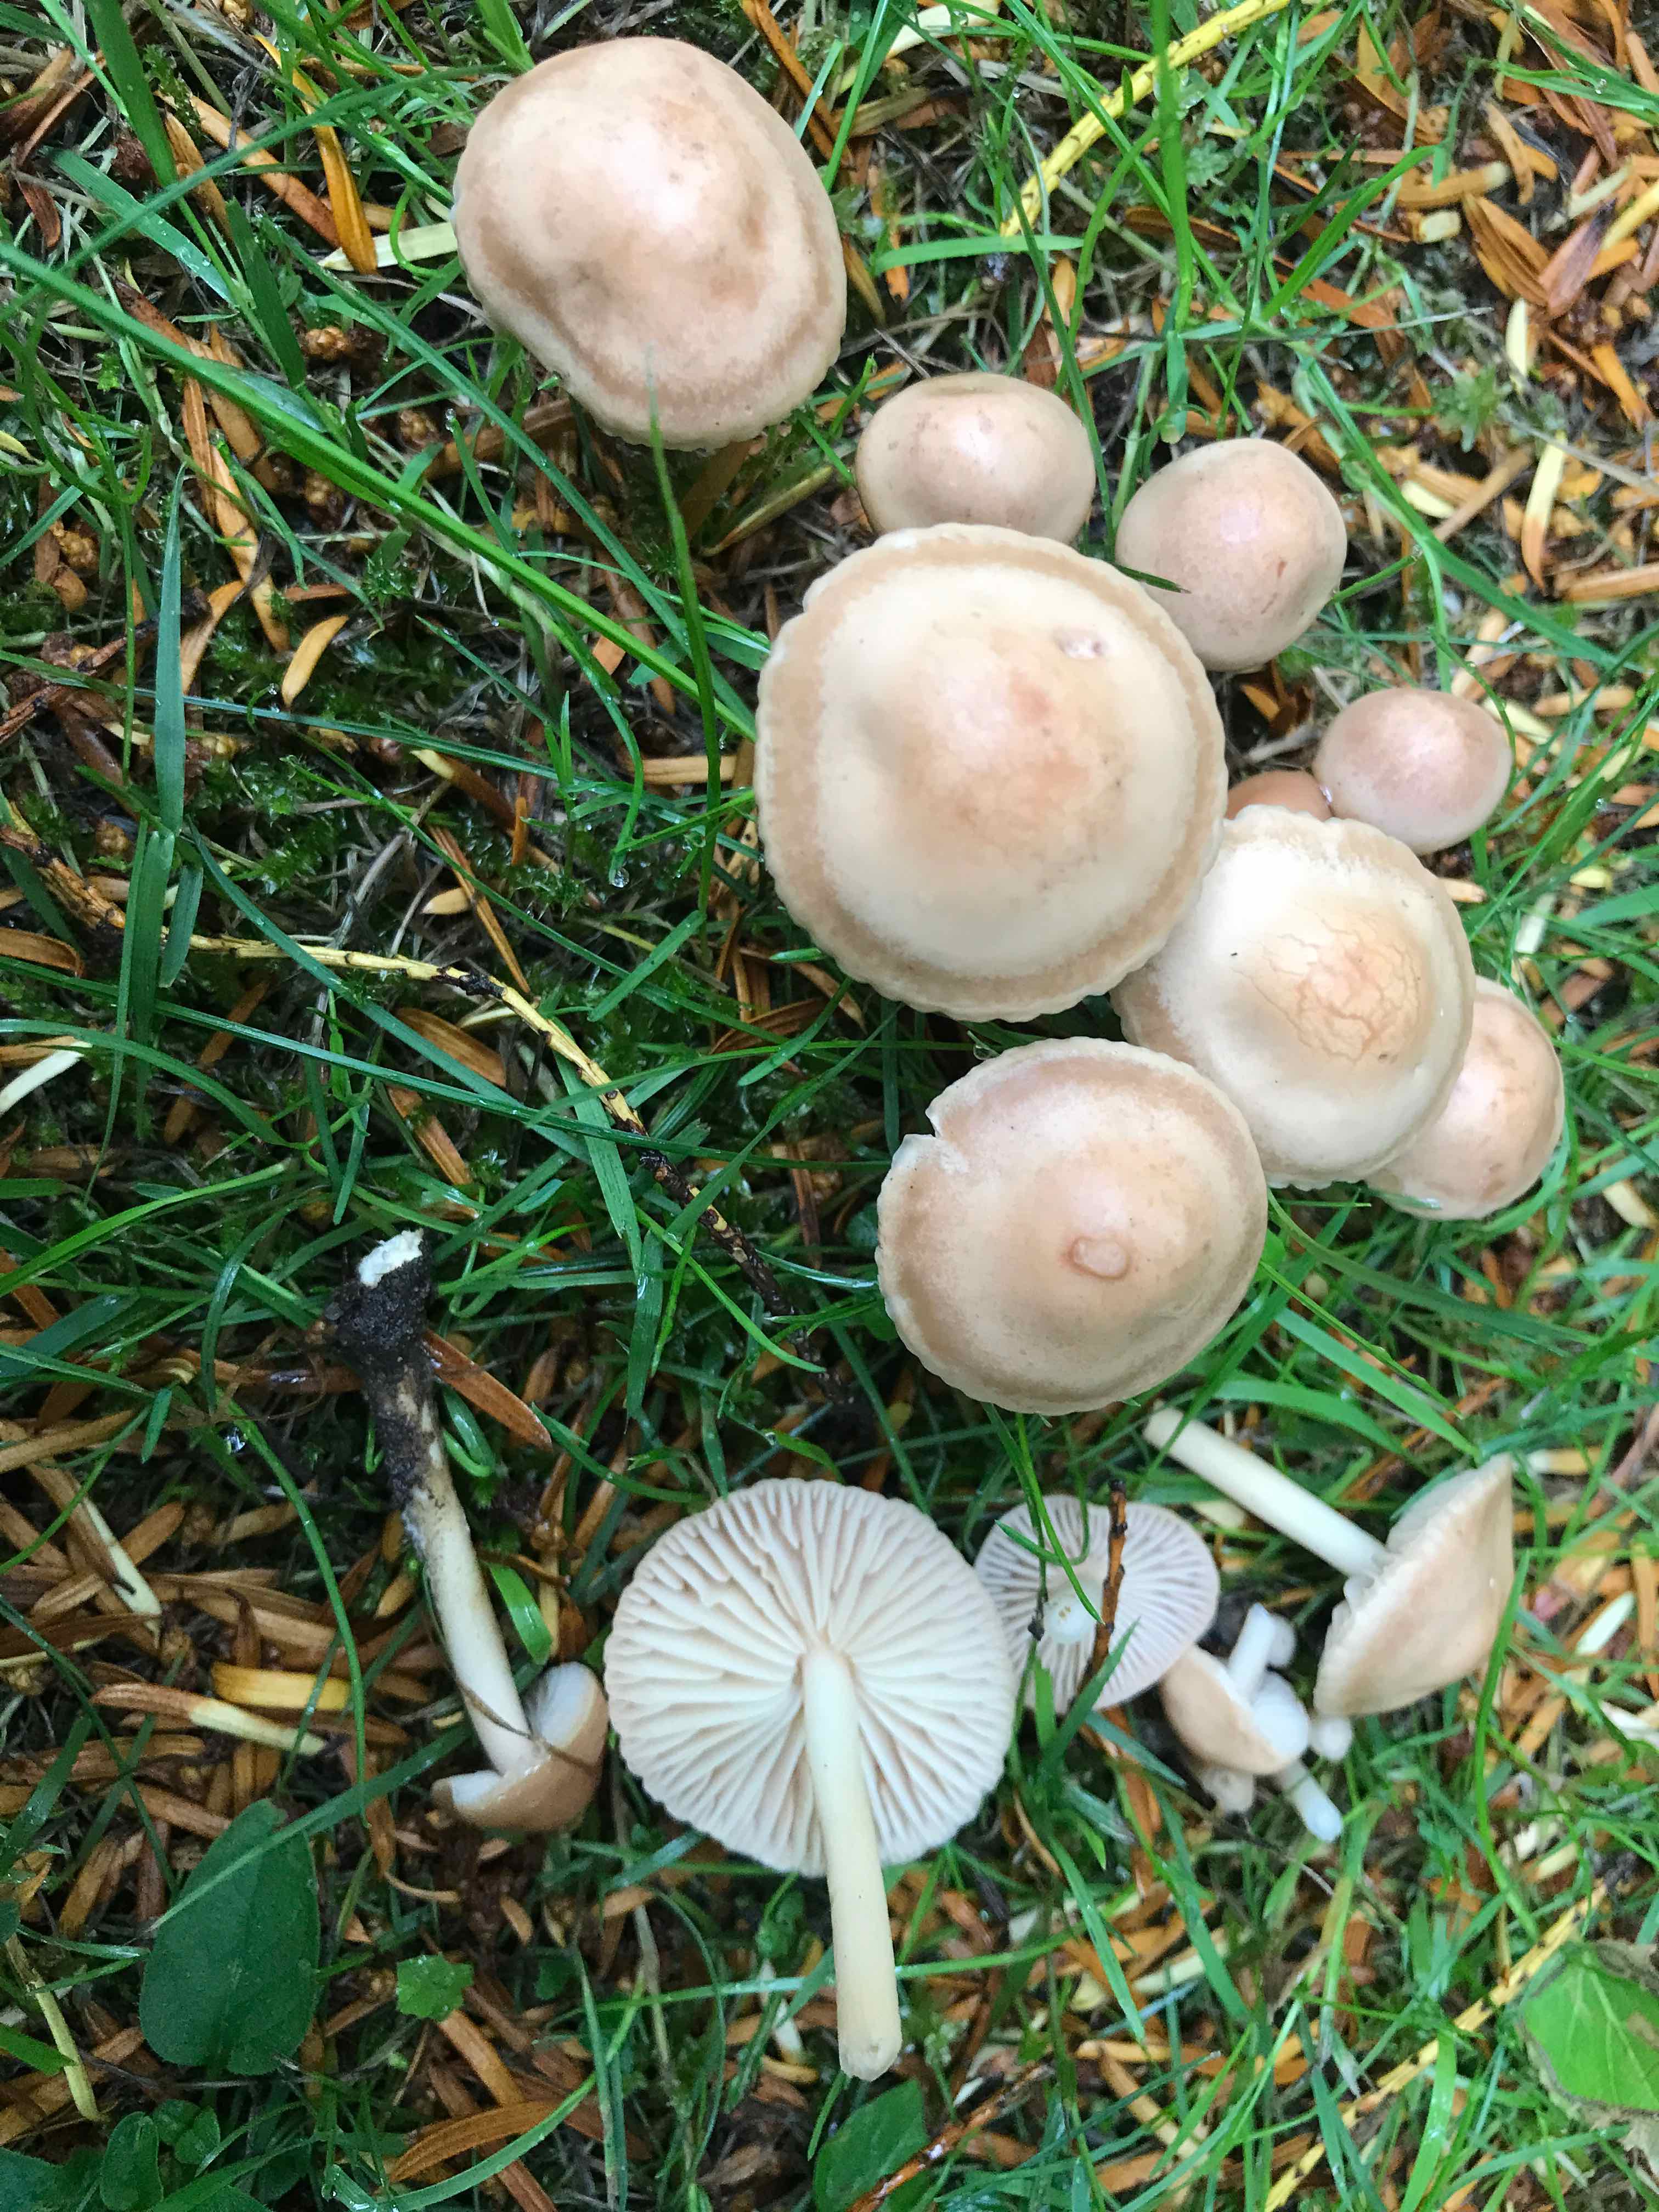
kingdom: Fungi
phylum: Basidiomycota
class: Agaricomycetes
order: Agaricales
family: Marasmiaceae
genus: Marasmius
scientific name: Marasmius oreades
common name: elledans-bruskhat
